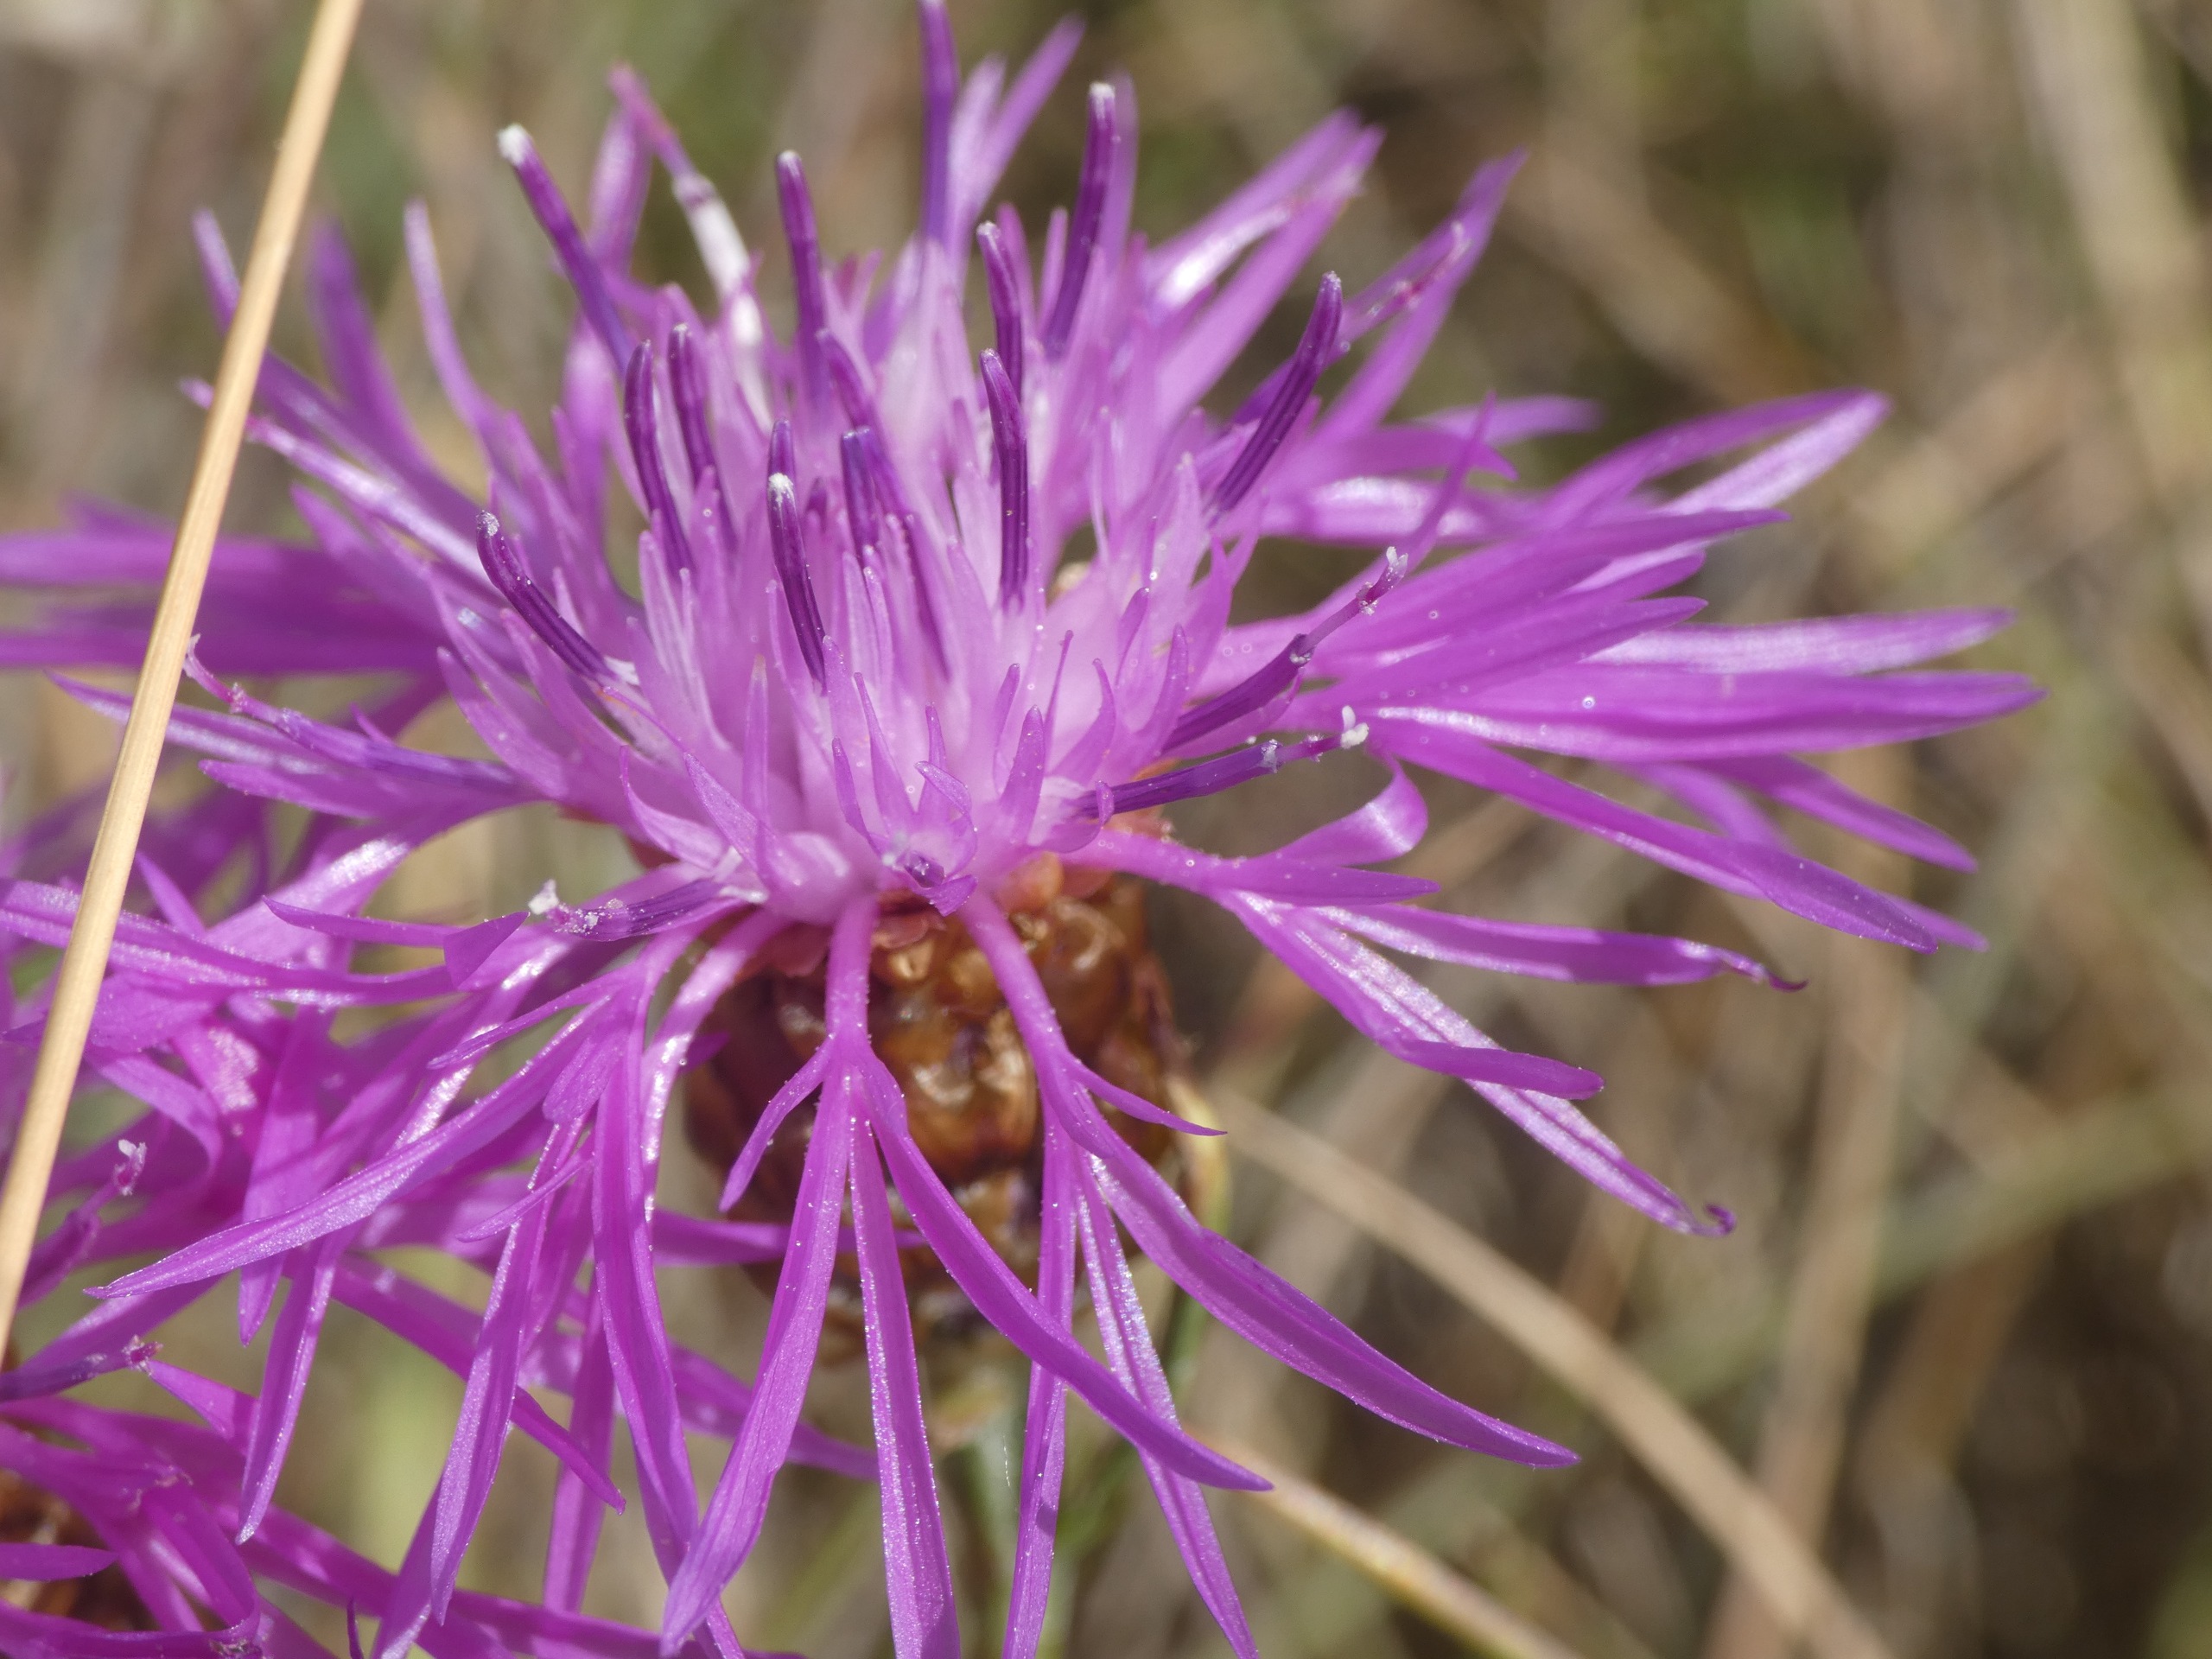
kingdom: Plantae
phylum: Tracheophyta
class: Magnoliopsida
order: Asterales
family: Asteraceae
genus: Centaurea
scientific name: Centaurea jacea
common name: Almindelig knopurt
